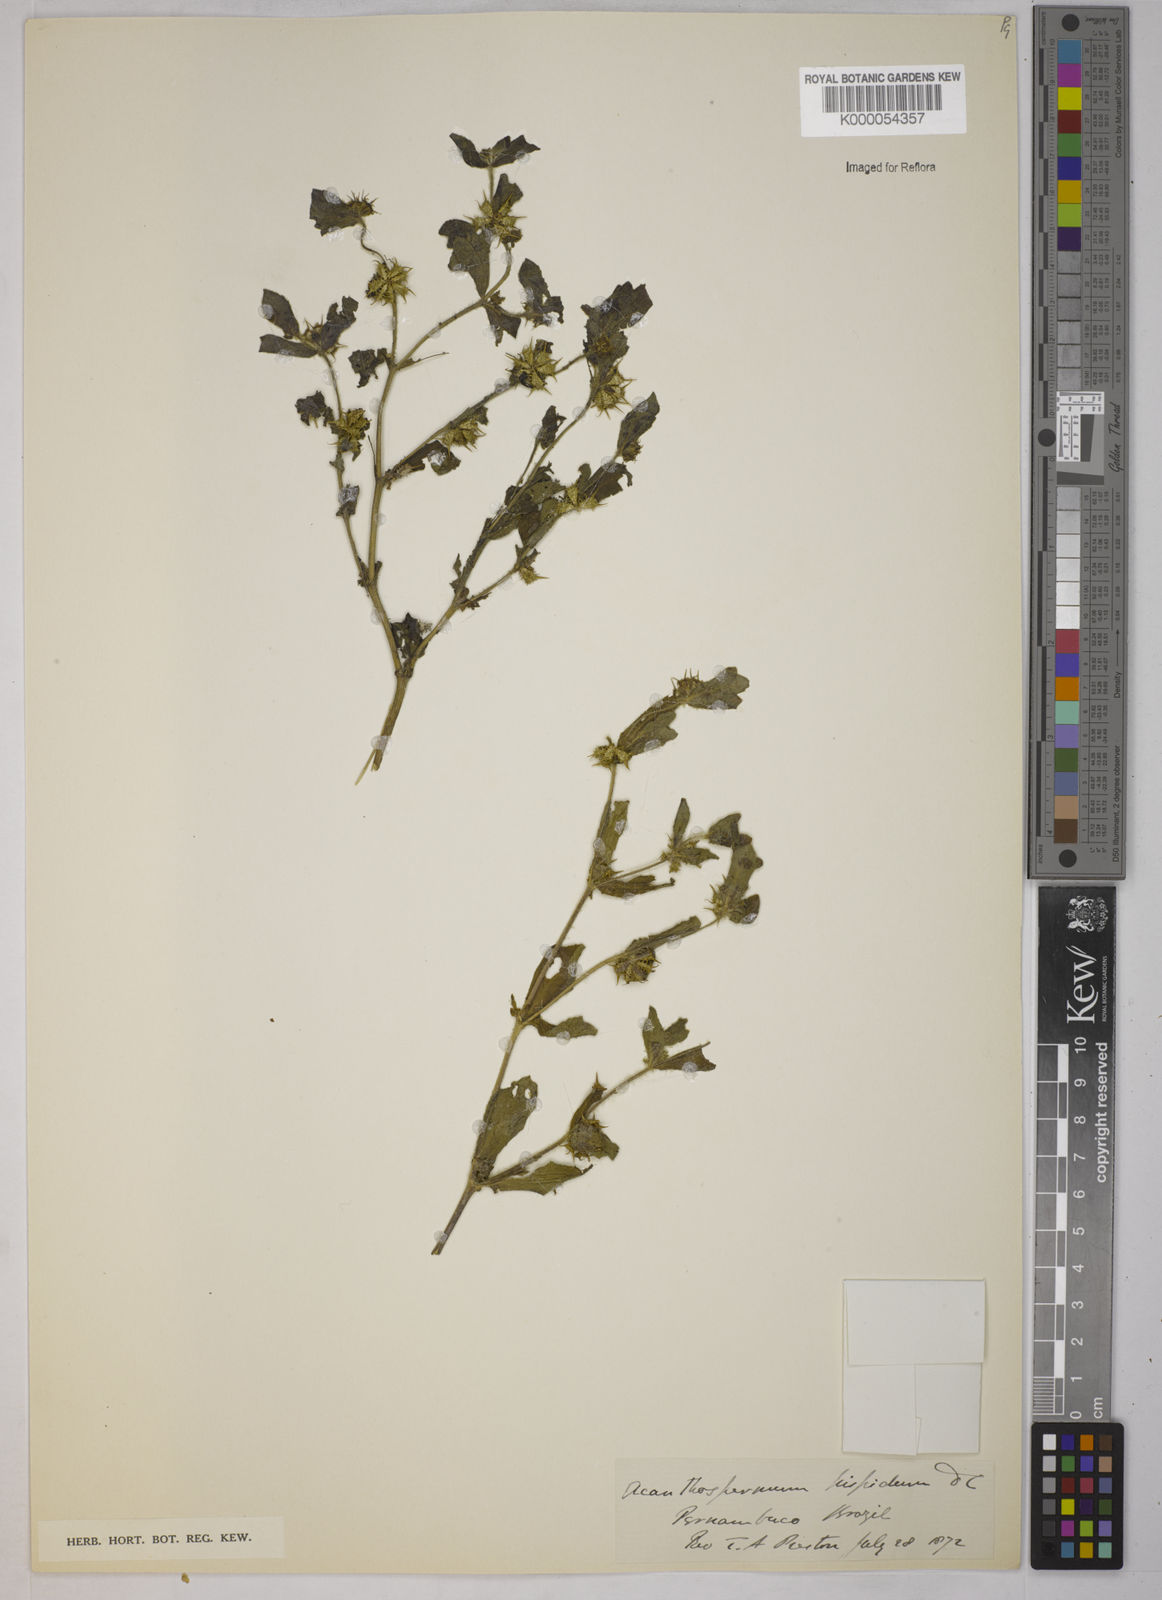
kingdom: Plantae
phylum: Tracheophyta
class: Magnoliopsida
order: Asterales
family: Asteraceae
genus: Acanthospermum
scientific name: Acanthospermum hispidum
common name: Hispid starbur
